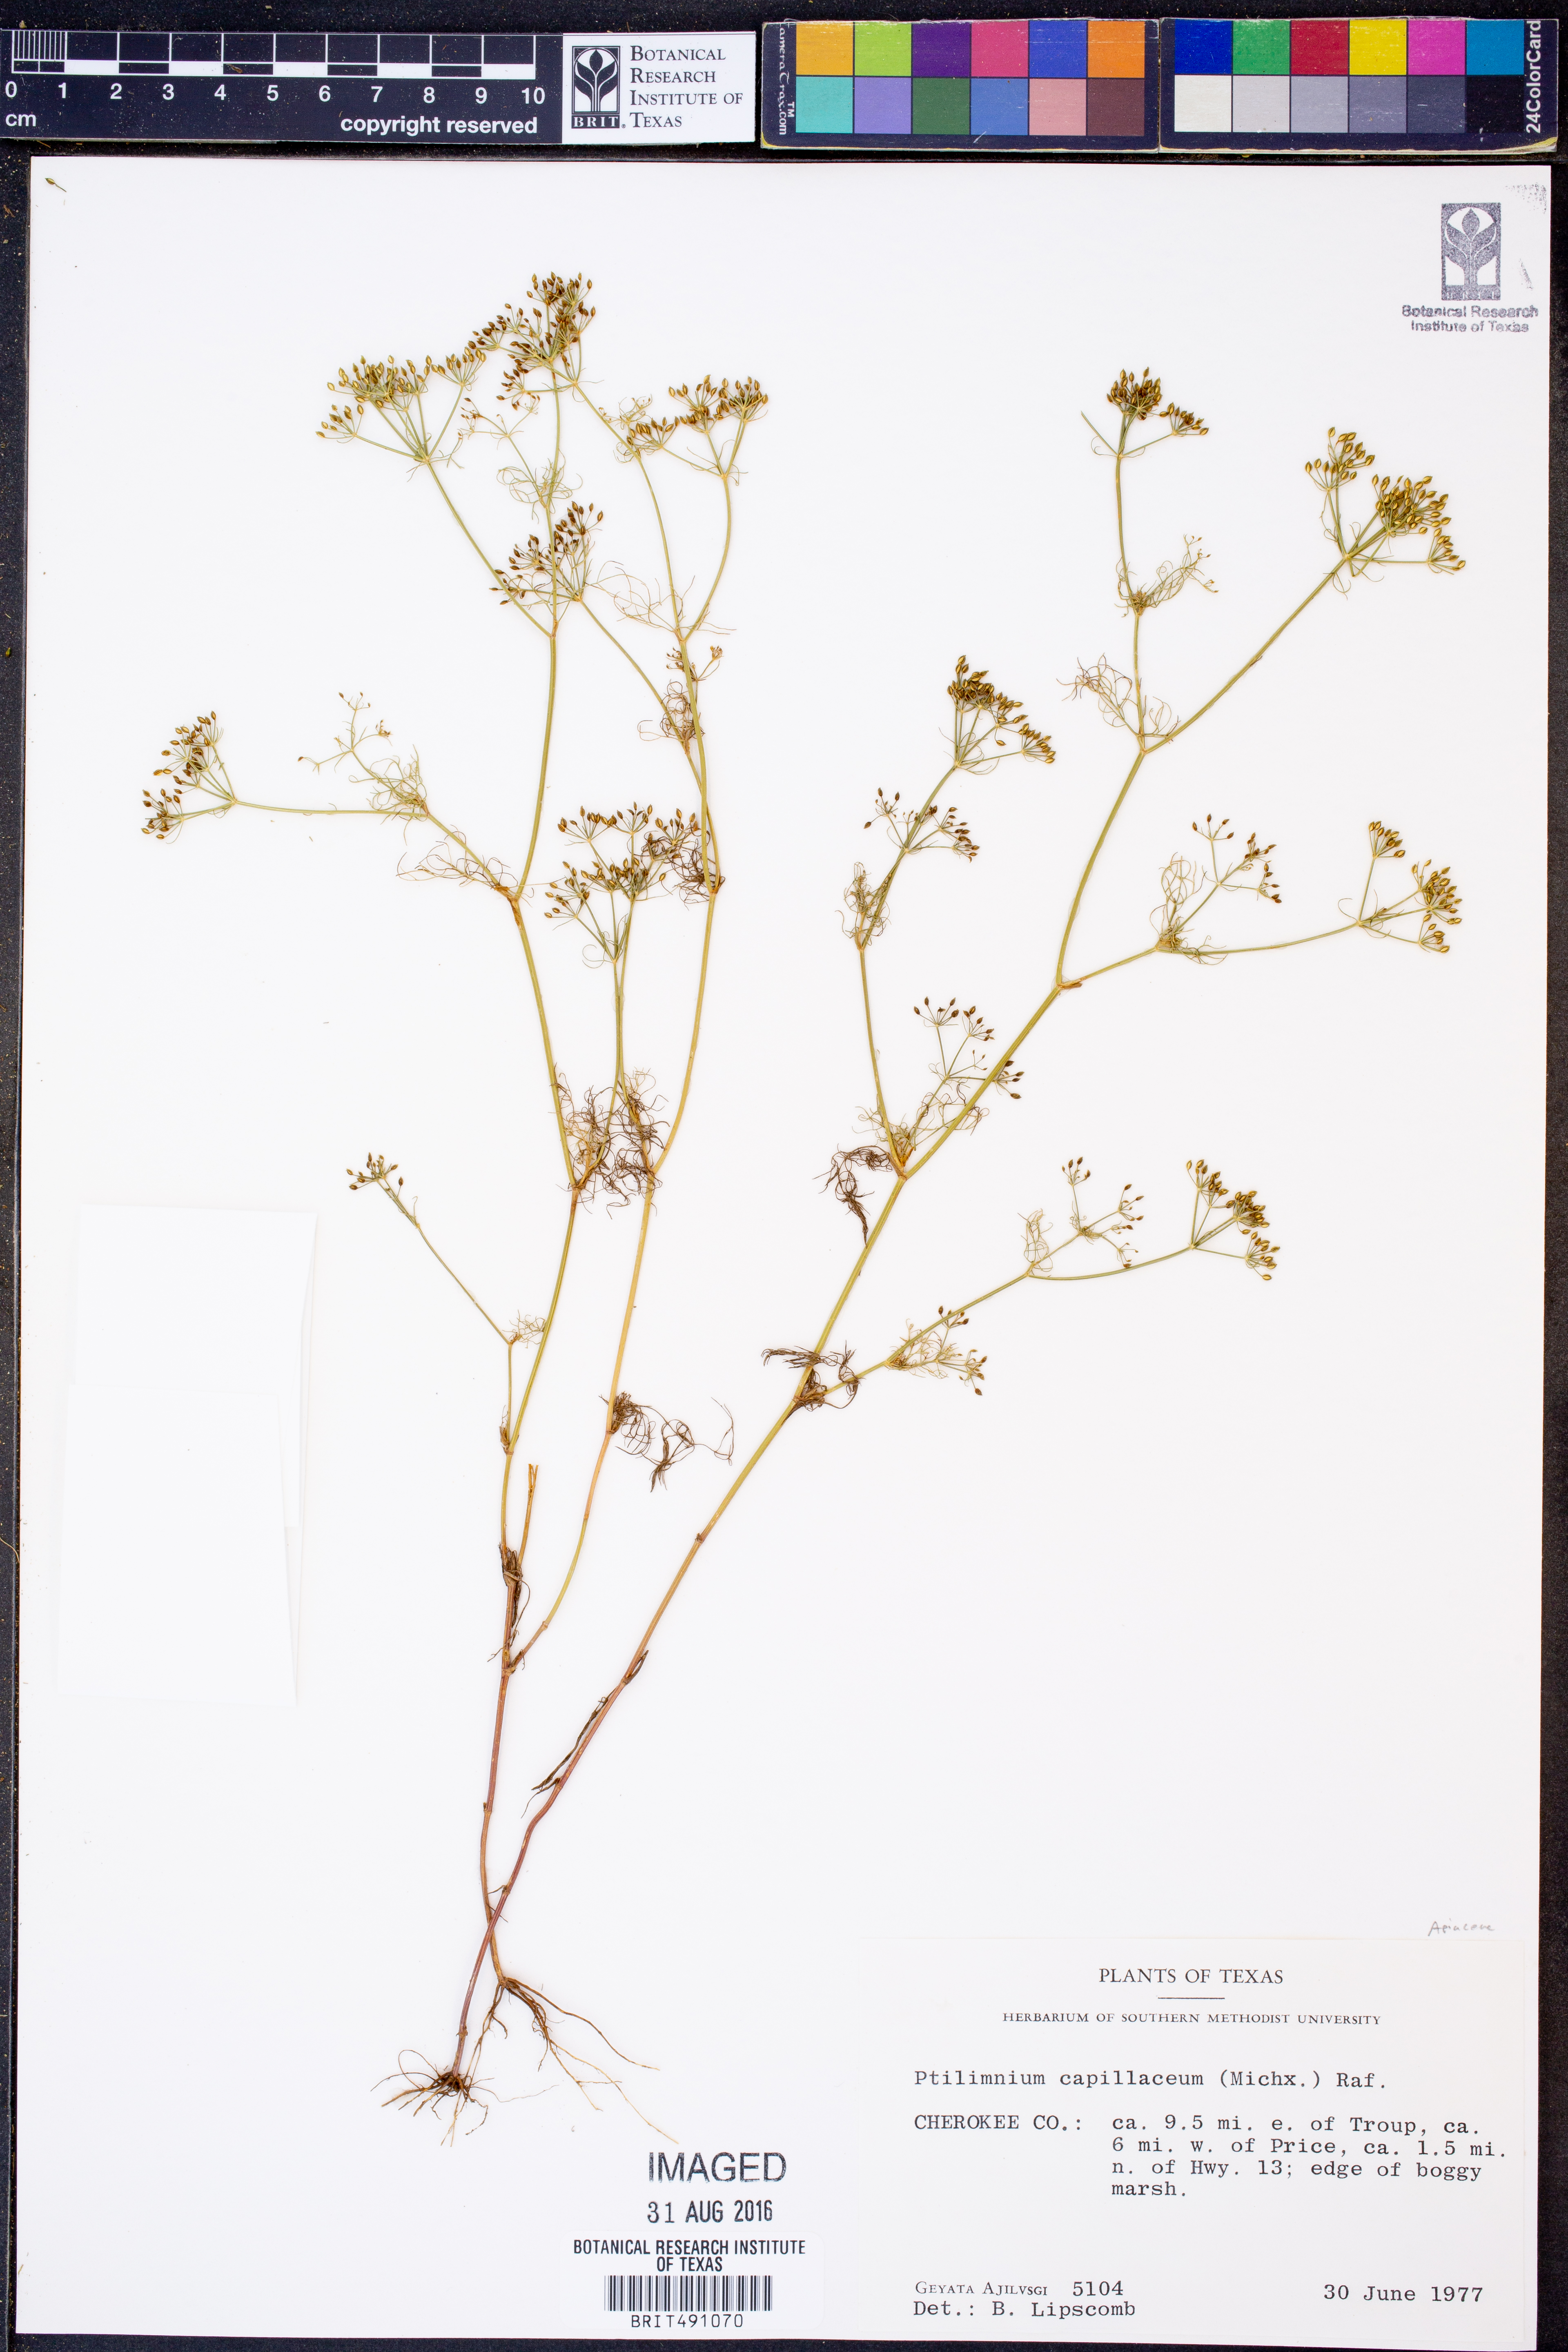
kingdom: Plantae
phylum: Tracheophyta
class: Magnoliopsida
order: Apiales
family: Apiaceae
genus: Ptilimnium
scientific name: Ptilimnium capillaceum
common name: Herbwilliam
